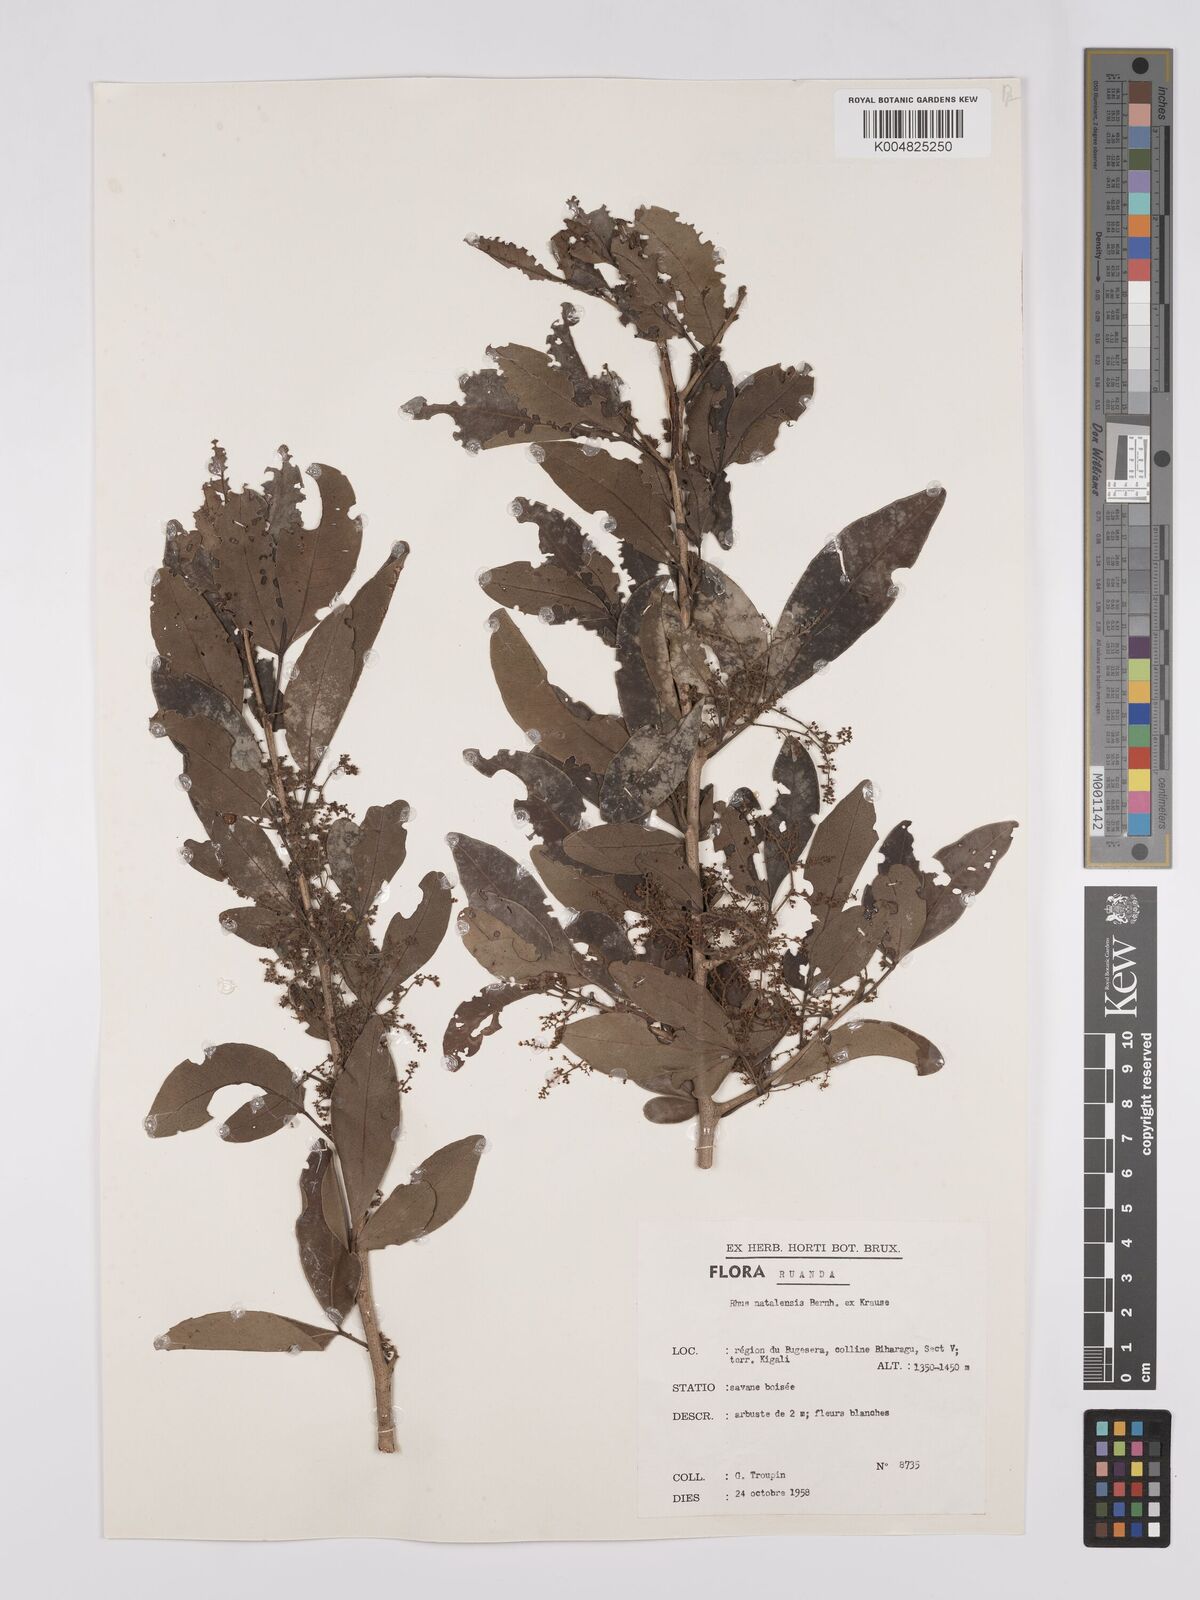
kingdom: Plantae
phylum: Tracheophyta
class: Magnoliopsida
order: Sapindales
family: Anacardiaceae
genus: Searsia
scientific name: Searsia natalensis
